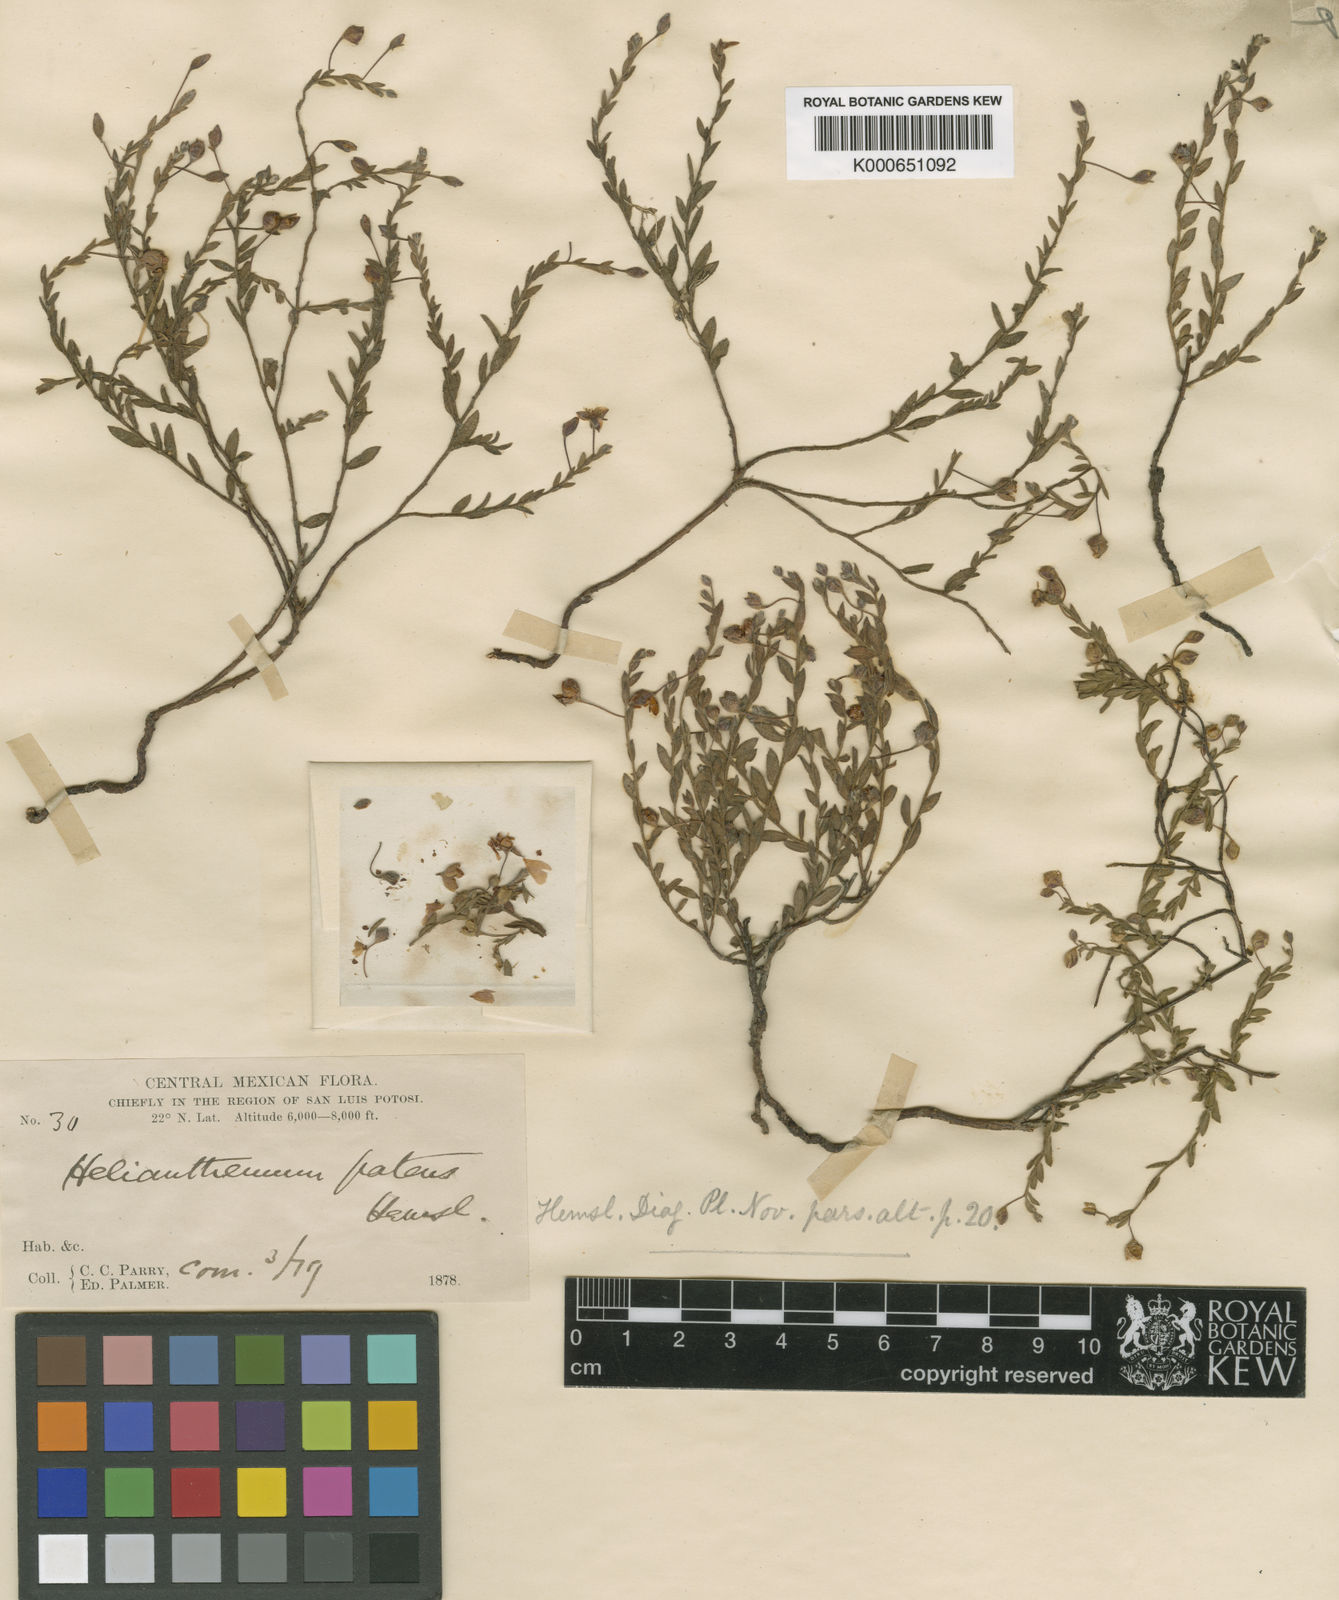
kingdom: Plantae
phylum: Tracheophyta
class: Magnoliopsida
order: Malvales
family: Cistaceae
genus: Crocanthemum
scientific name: Crocanthemum patens
